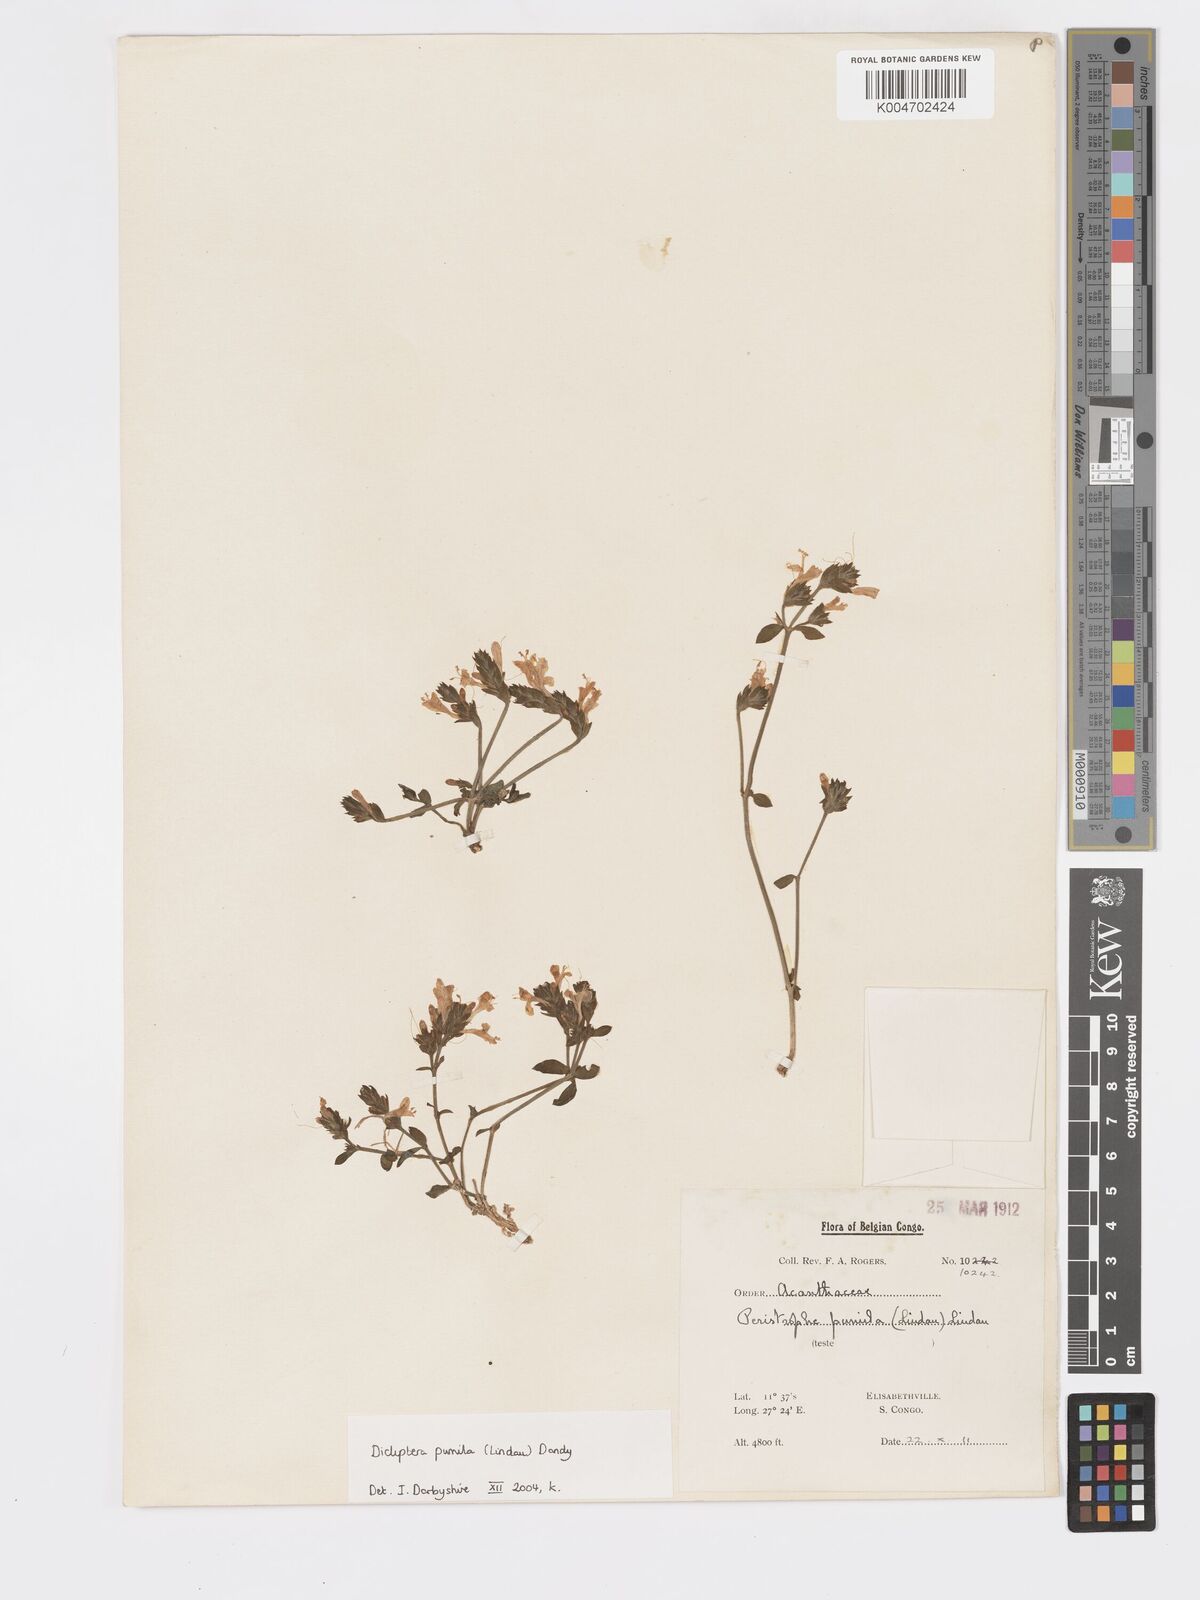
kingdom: Plantae
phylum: Tracheophyta
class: Magnoliopsida
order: Lamiales
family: Acanthaceae
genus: Dicliptera
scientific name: Dicliptera pumila
